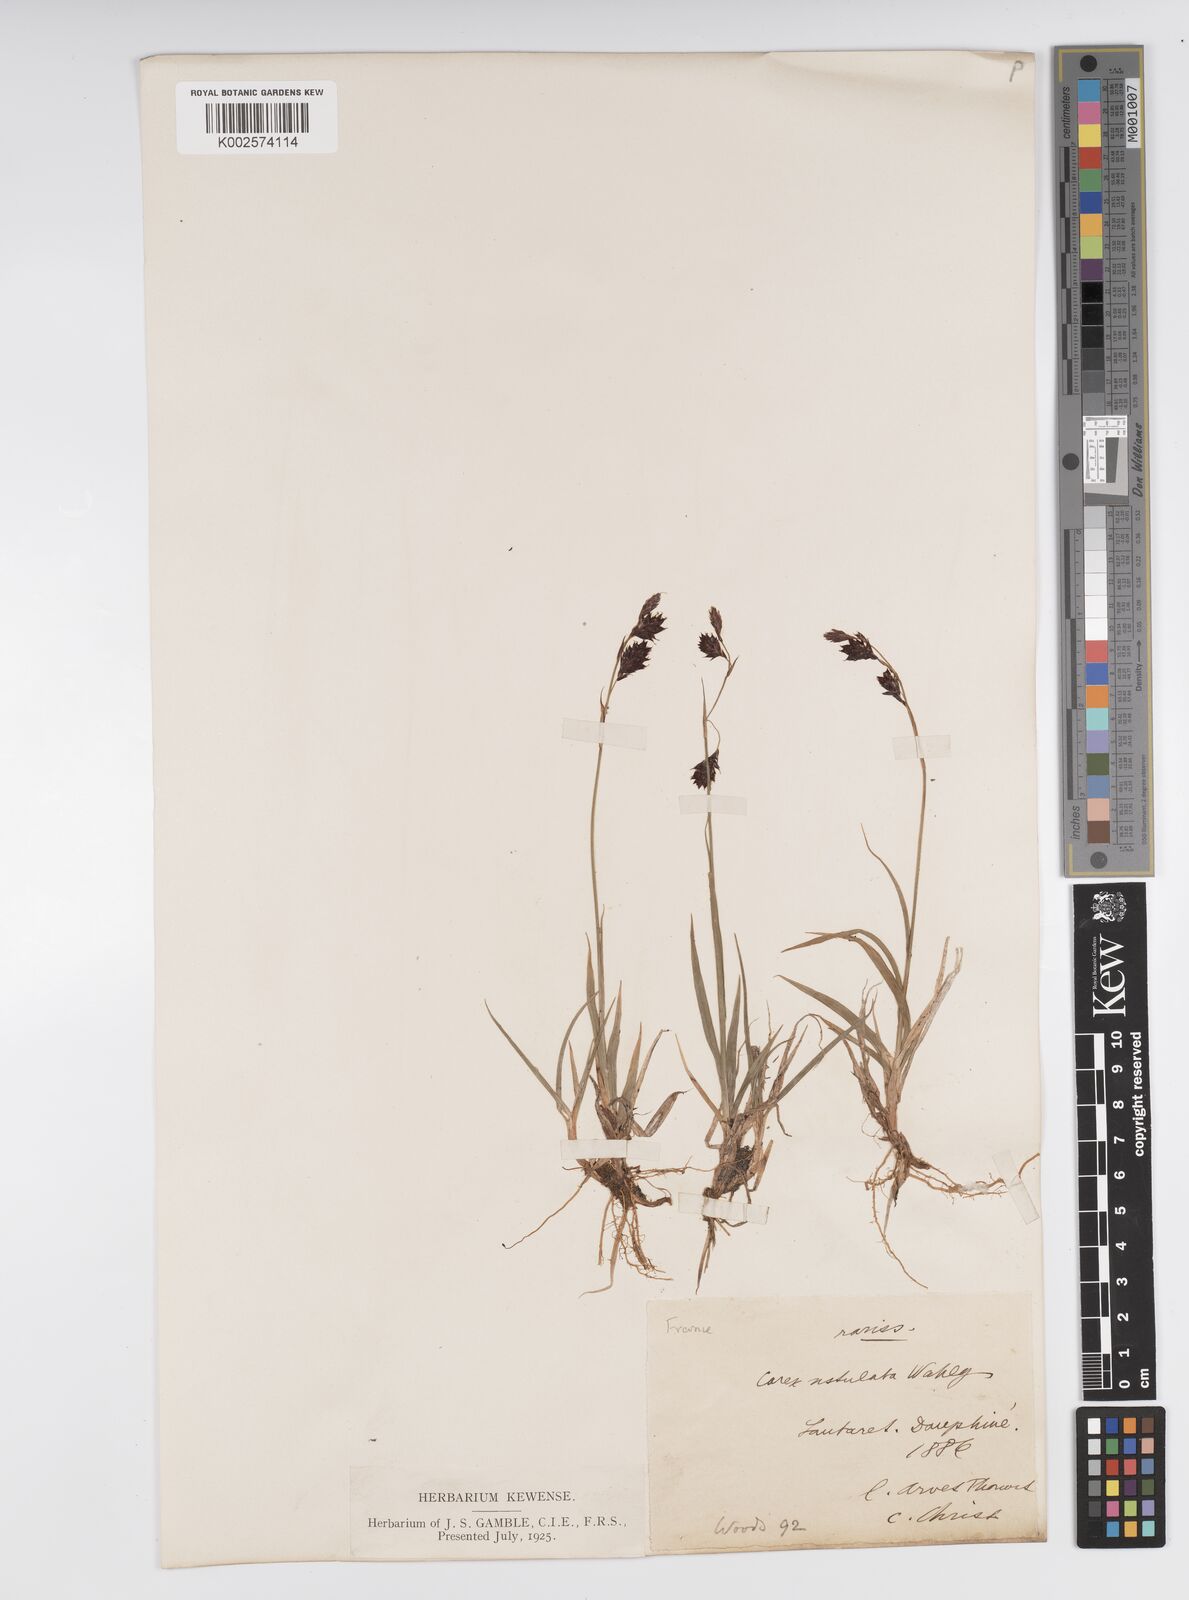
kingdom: Plantae
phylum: Tracheophyta
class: Liliopsida
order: Poales
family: Cyperaceae
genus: Carex
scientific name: Carex atrofusca
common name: Scorched alpine-sedge
